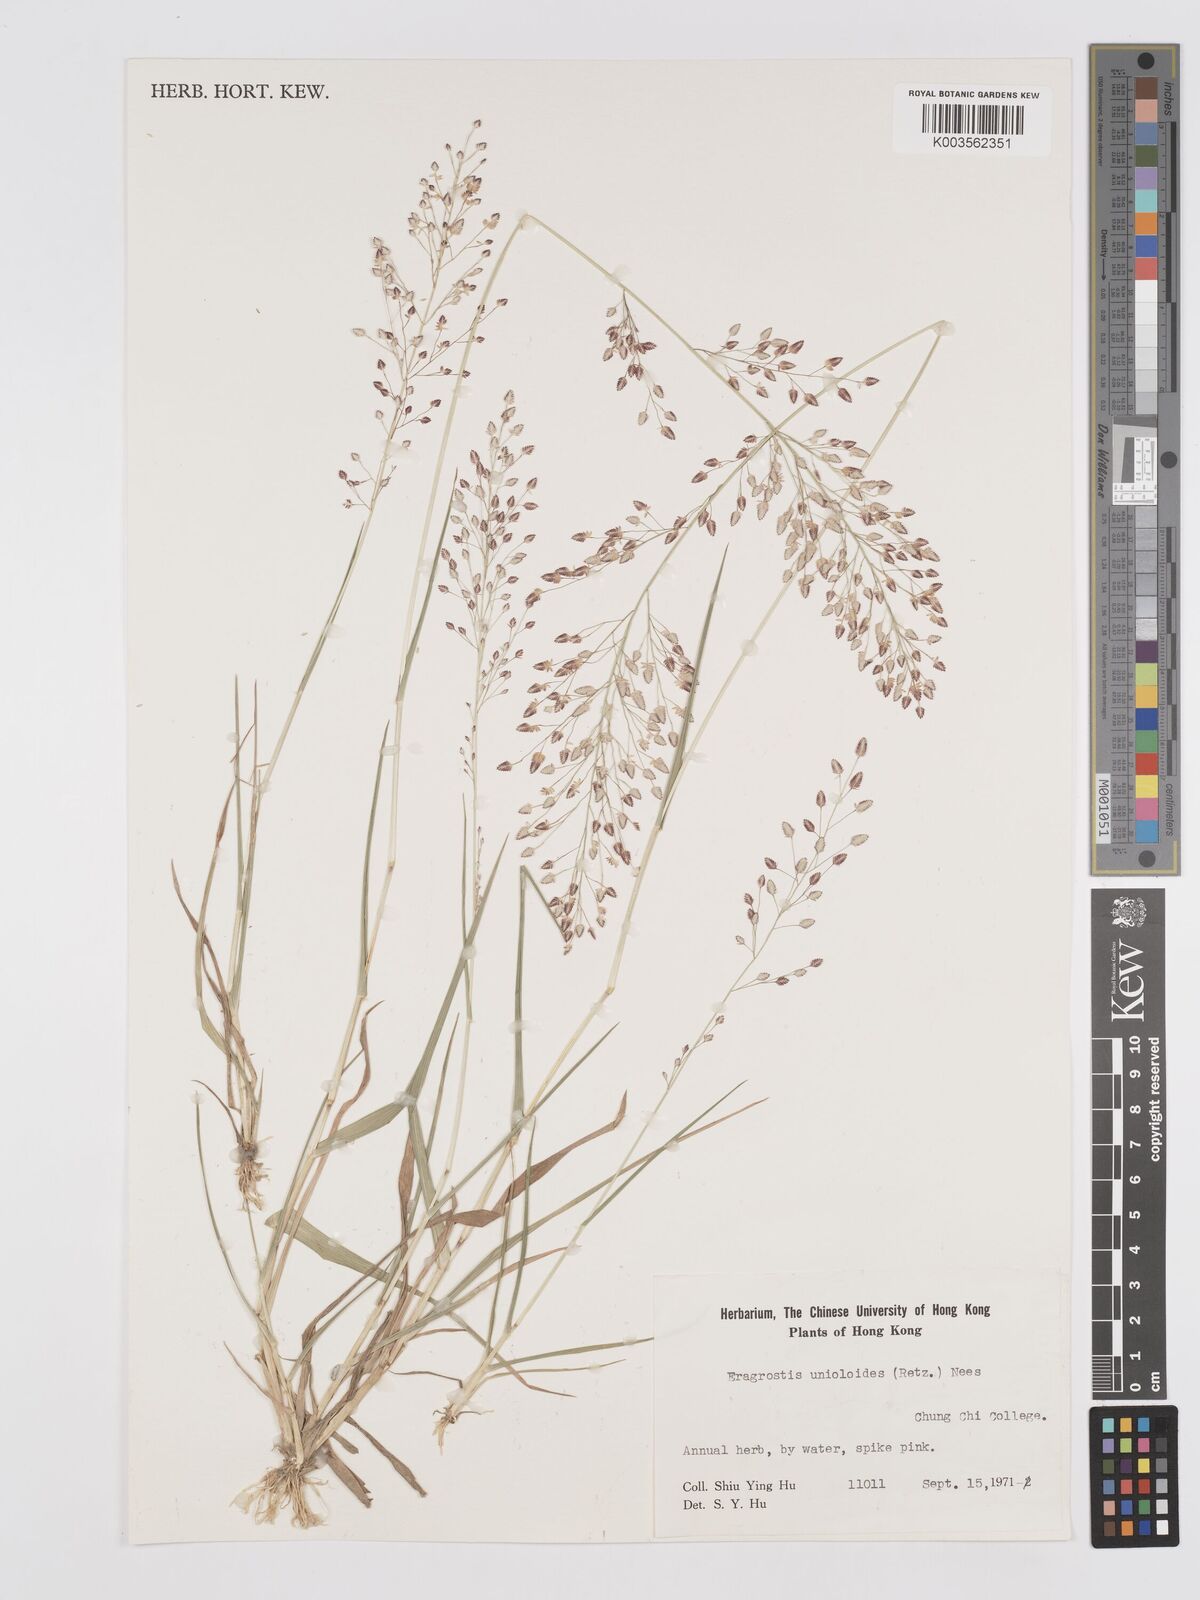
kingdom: Plantae
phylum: Tracheophyta
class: Liliopsida
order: Poales
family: Poaceae
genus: Eragrostis
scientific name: Eragrostis unioloides
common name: Chinese lovegrass
